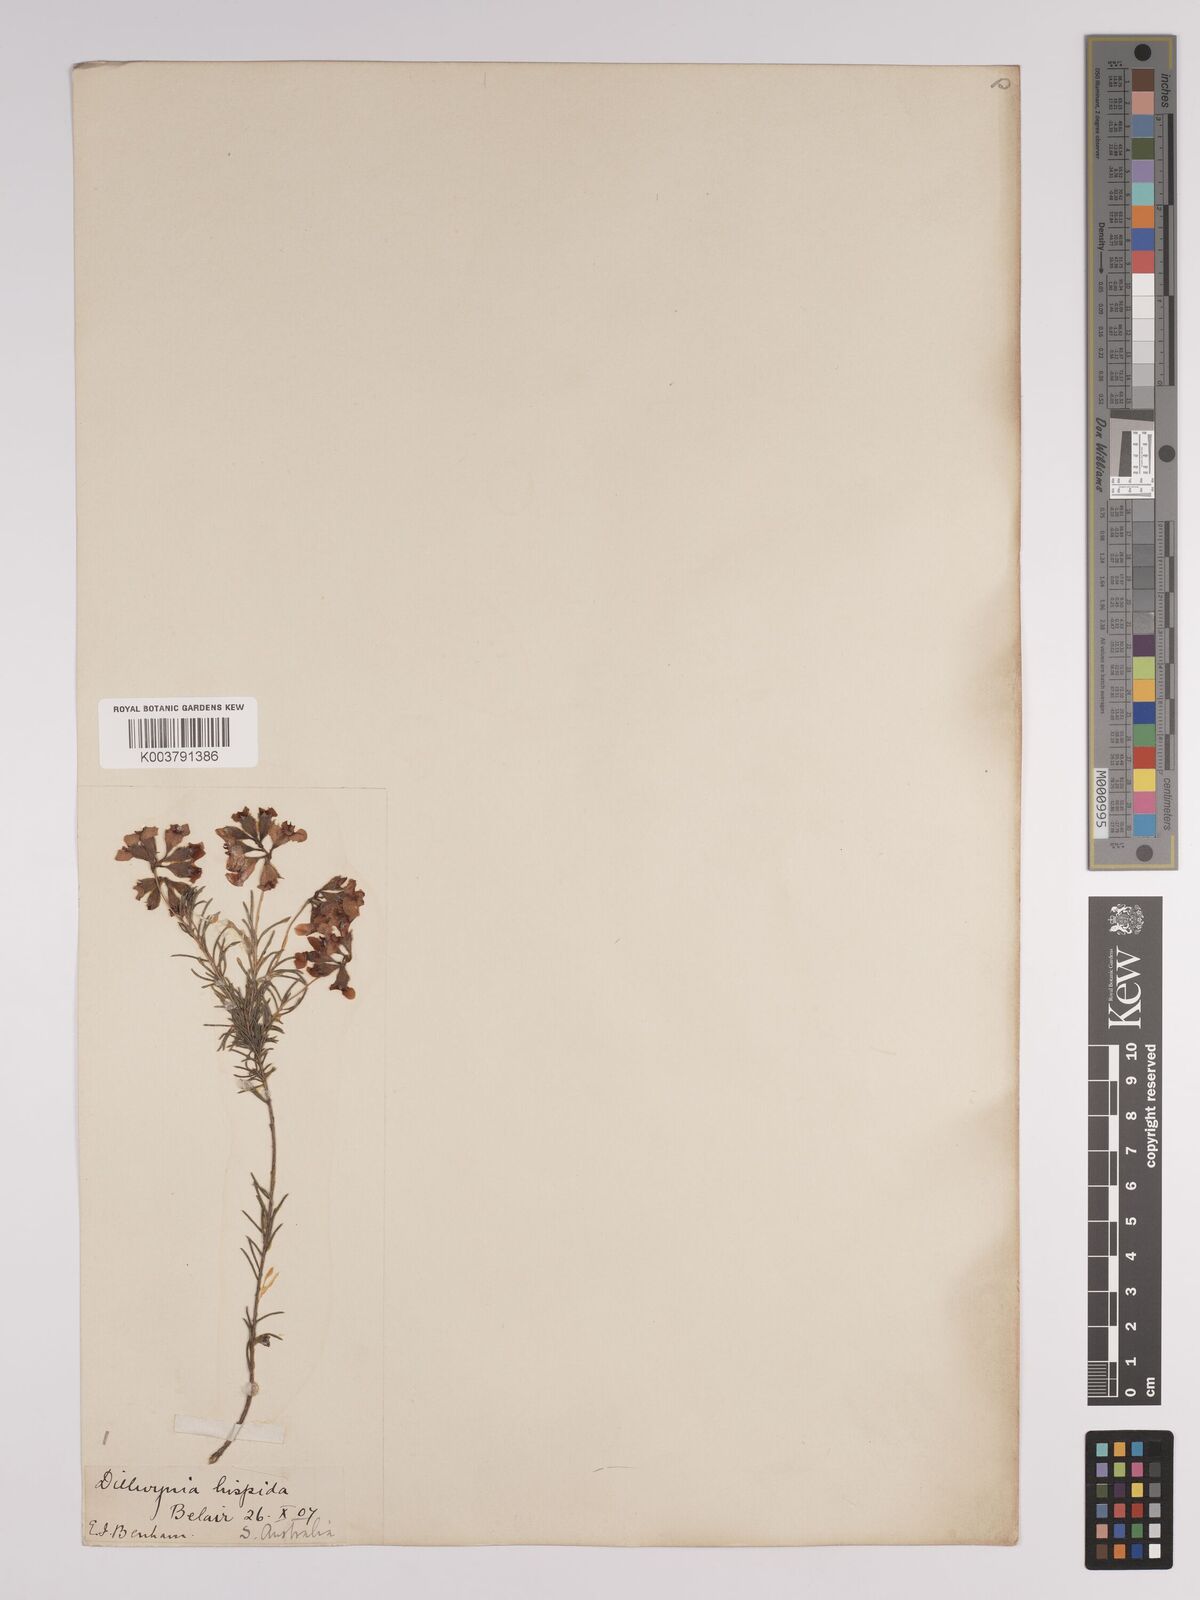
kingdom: Plantae
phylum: Tracheophyta
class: Magnoliopsida
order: Fabales
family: Fabaceae
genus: Dillwynia
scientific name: Dillwynia hispida
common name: Red parrot-pea
